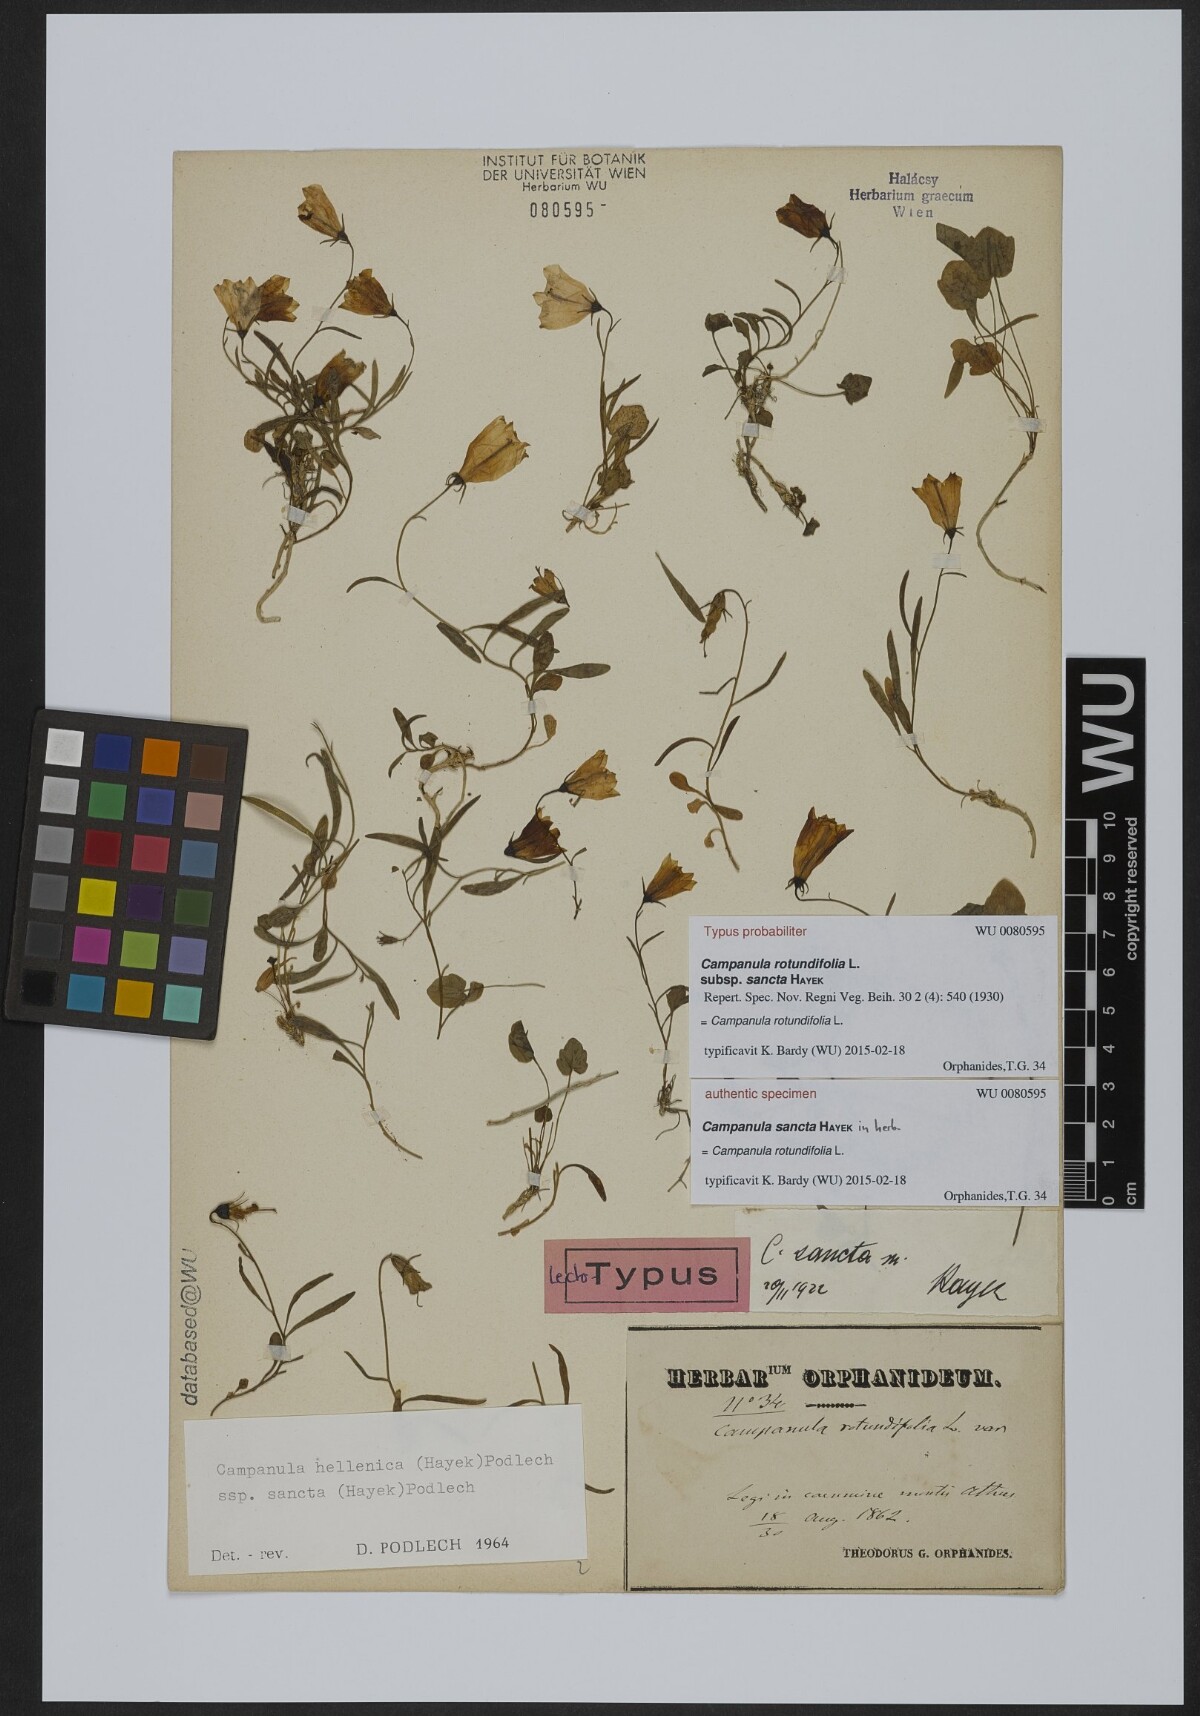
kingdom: Plantae
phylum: Tracheophyta
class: Magnoliopsida
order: Asterales
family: Campanulaceae
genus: Campanula
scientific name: Campanula
